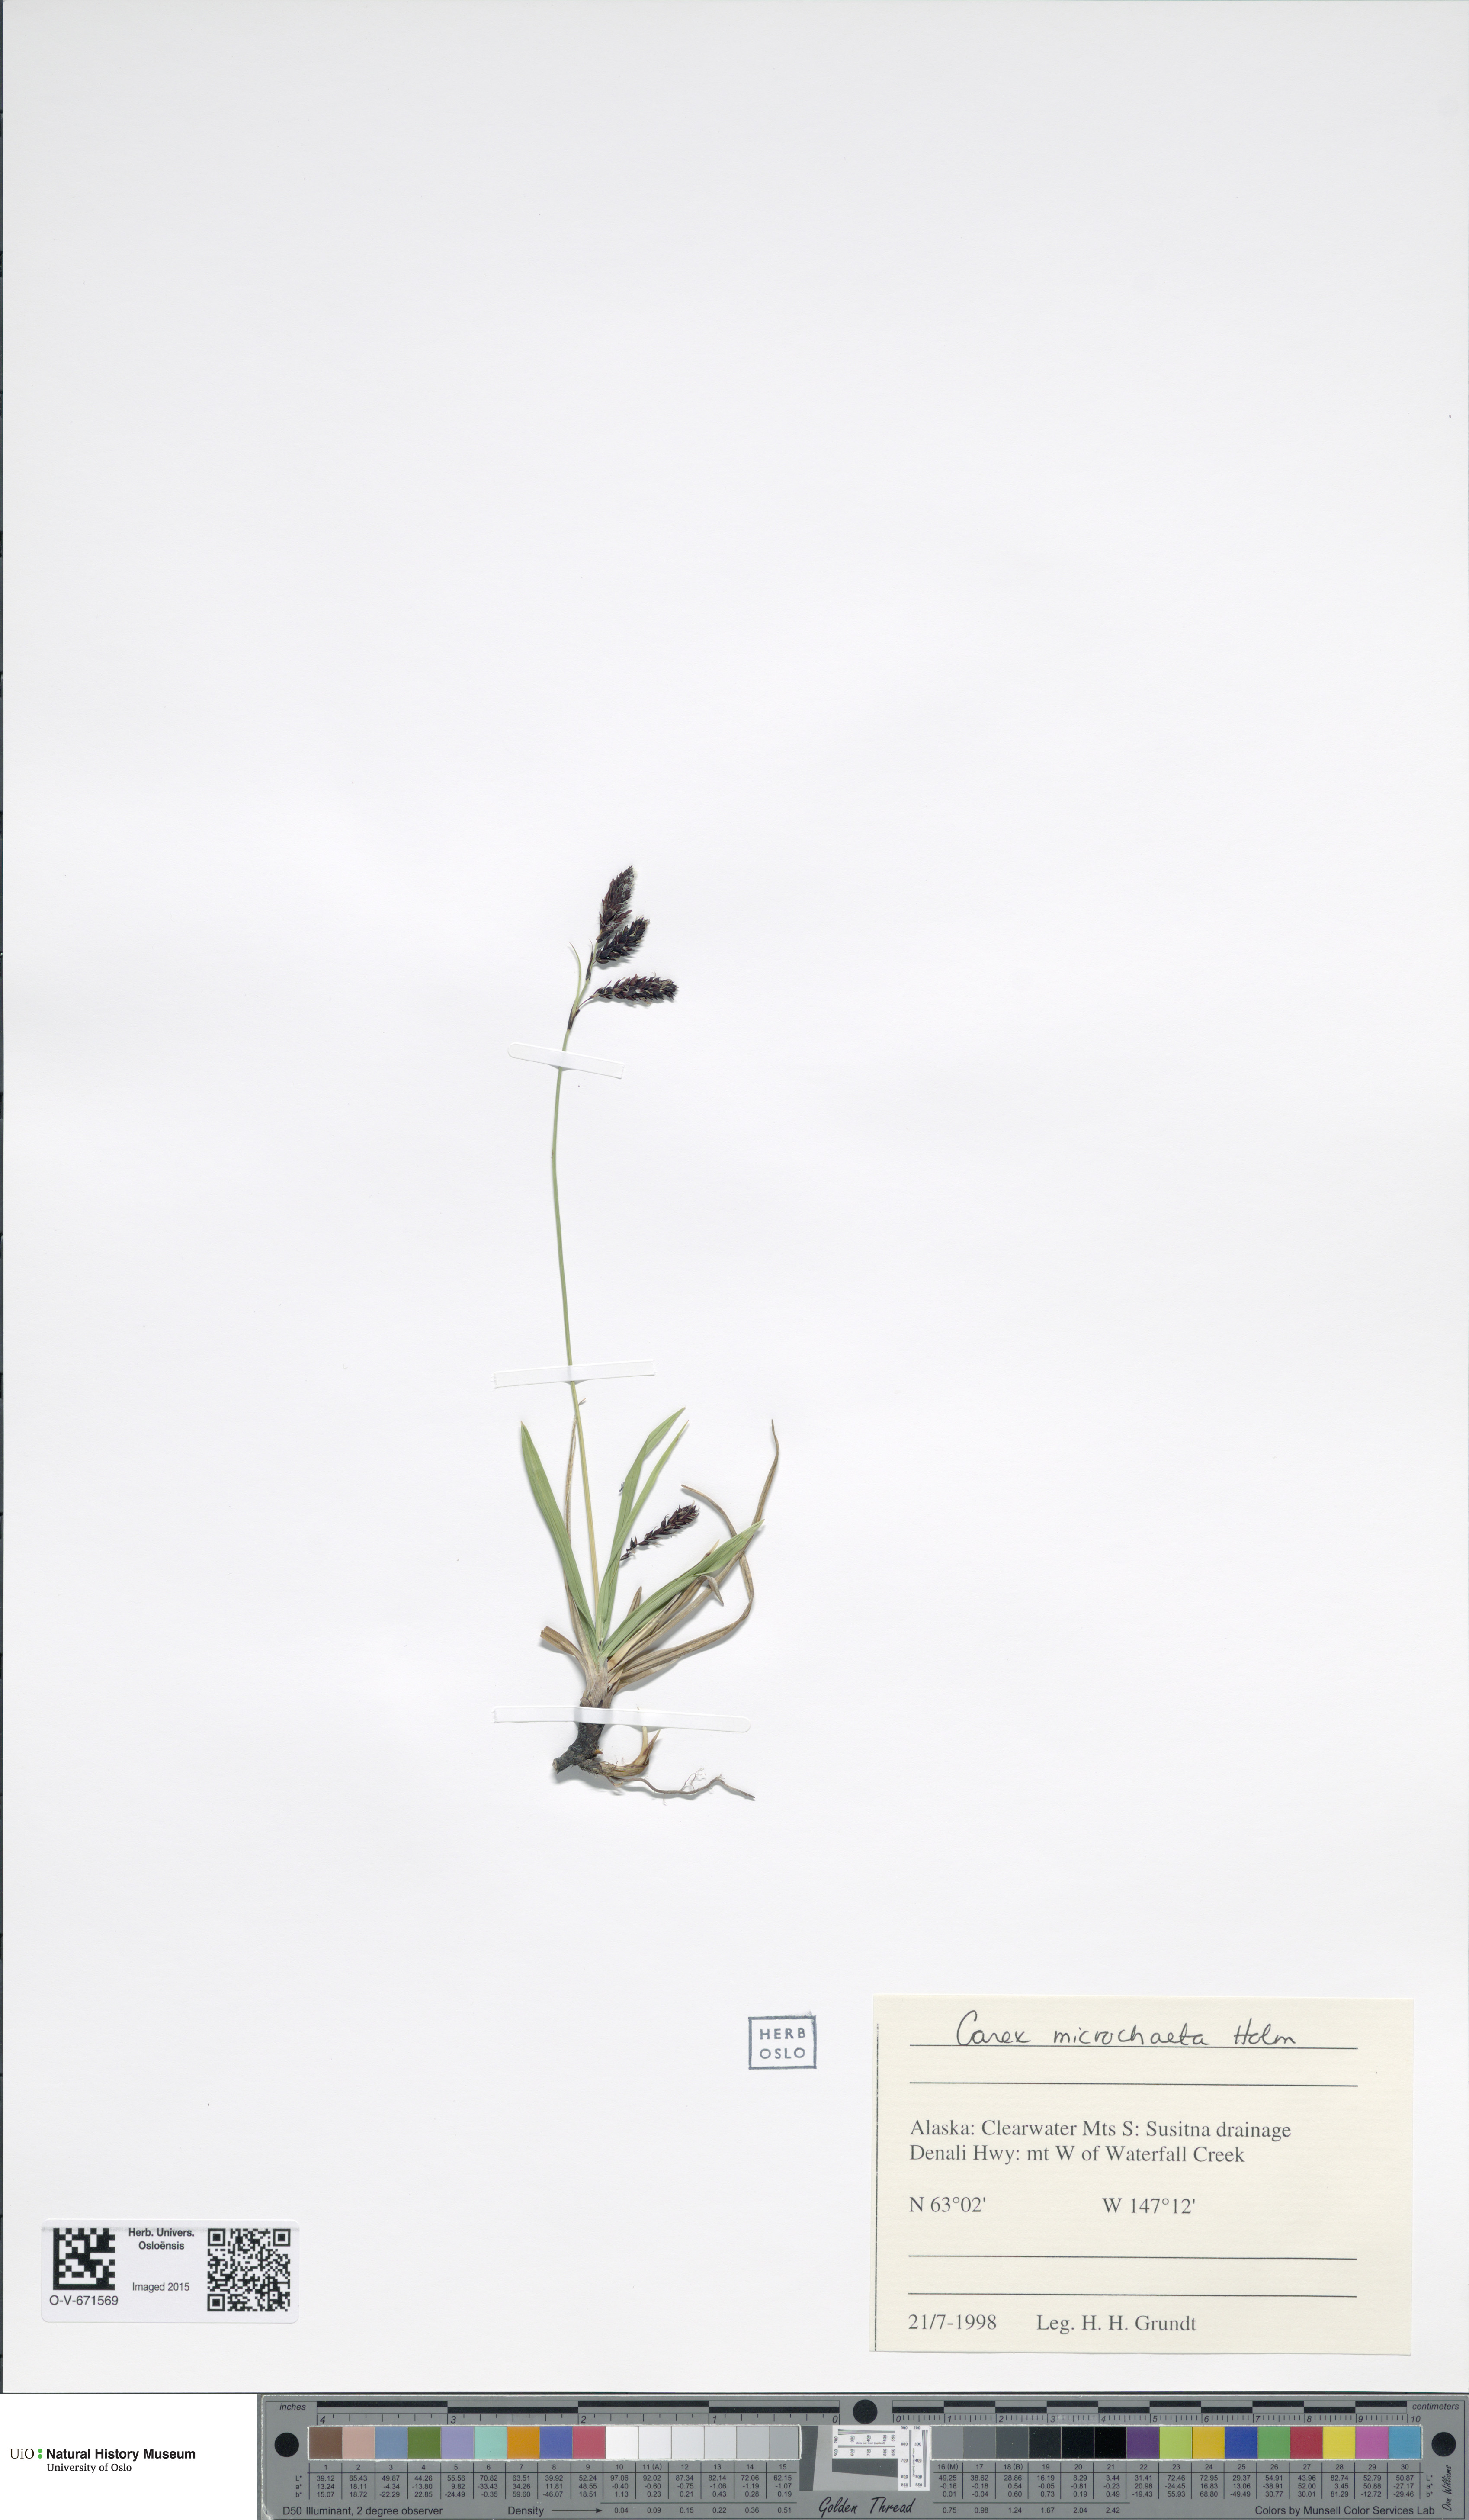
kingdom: Plantae
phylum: Tracheophyta
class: Liliopsida
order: Poales
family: Cyperaceae
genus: Carex
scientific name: Carex microchaeta
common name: Bering sea sedge
